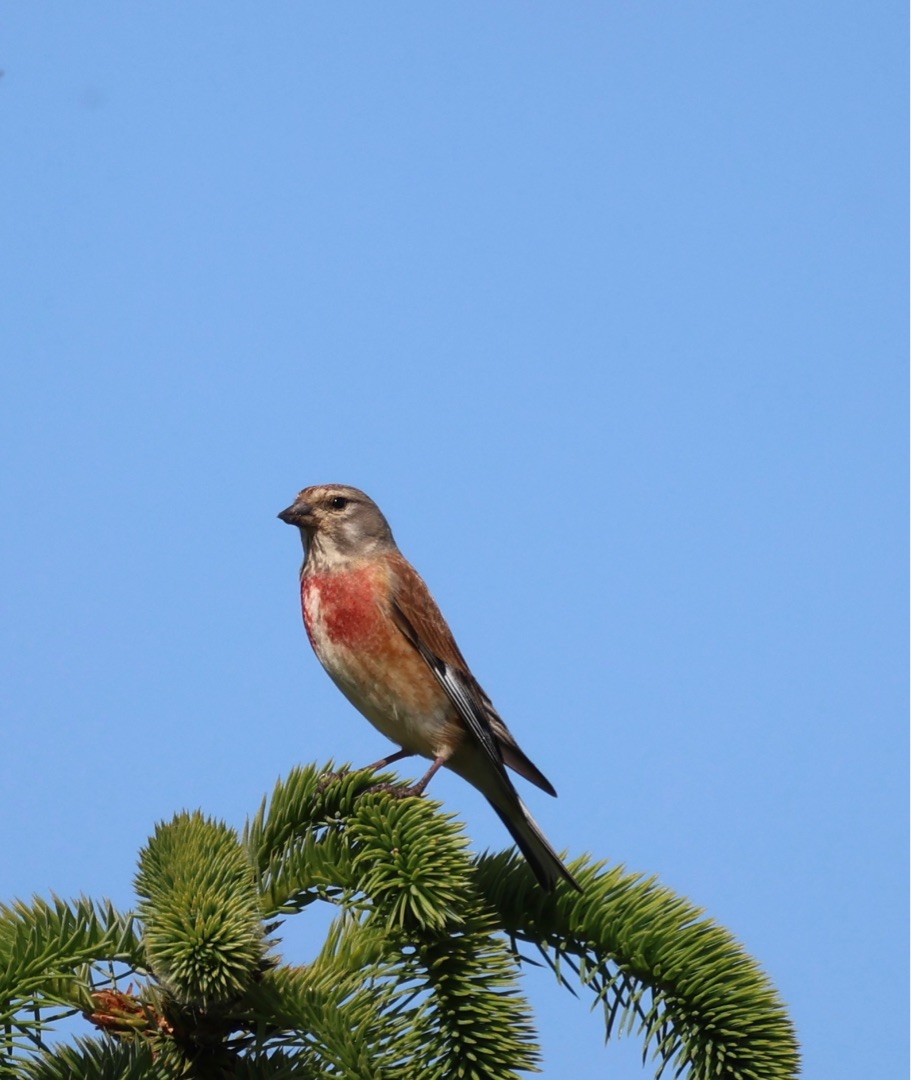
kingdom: Animalia
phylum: Chordata
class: Aves
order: Passeriformes
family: Fringillidae
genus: Linaria
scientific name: Linaria cannabina
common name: Tornirisk
